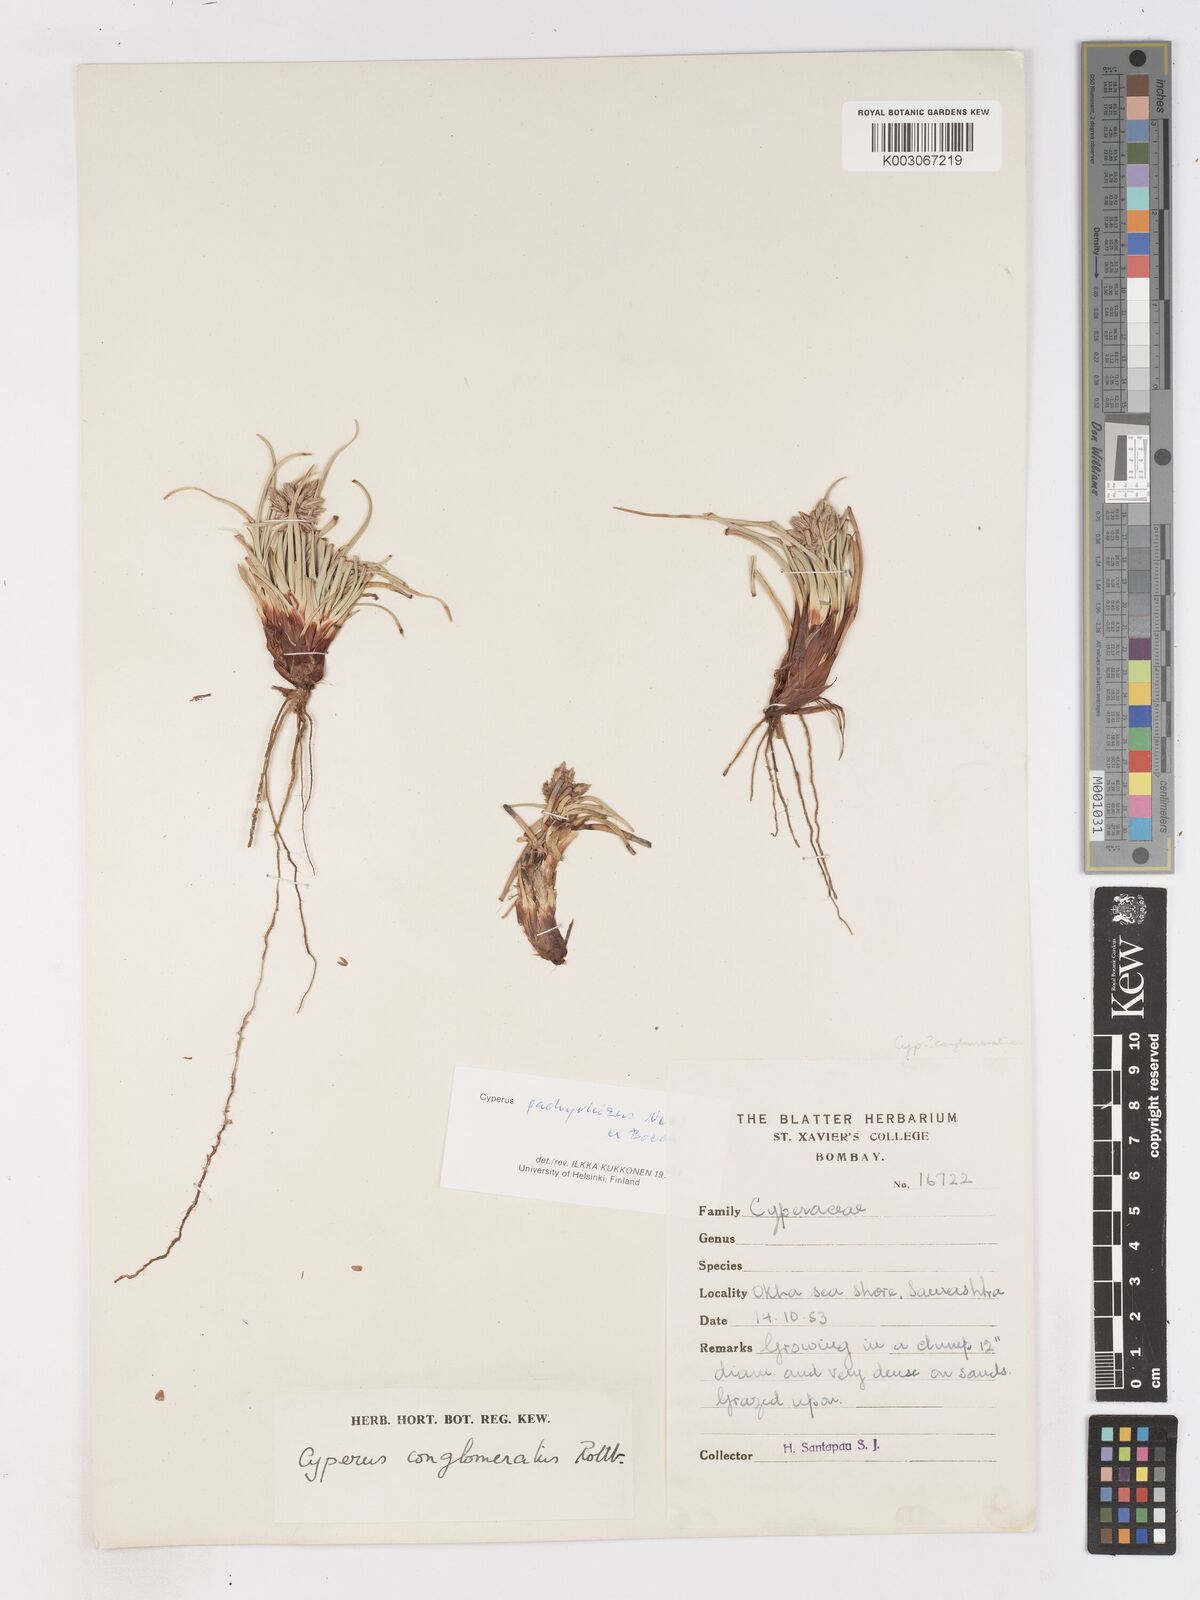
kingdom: Plantae
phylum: Tracheophyta
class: Liliopsida
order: Poales
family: Cyperaceae
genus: Cyperus
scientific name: Cyperus conglomeratus
